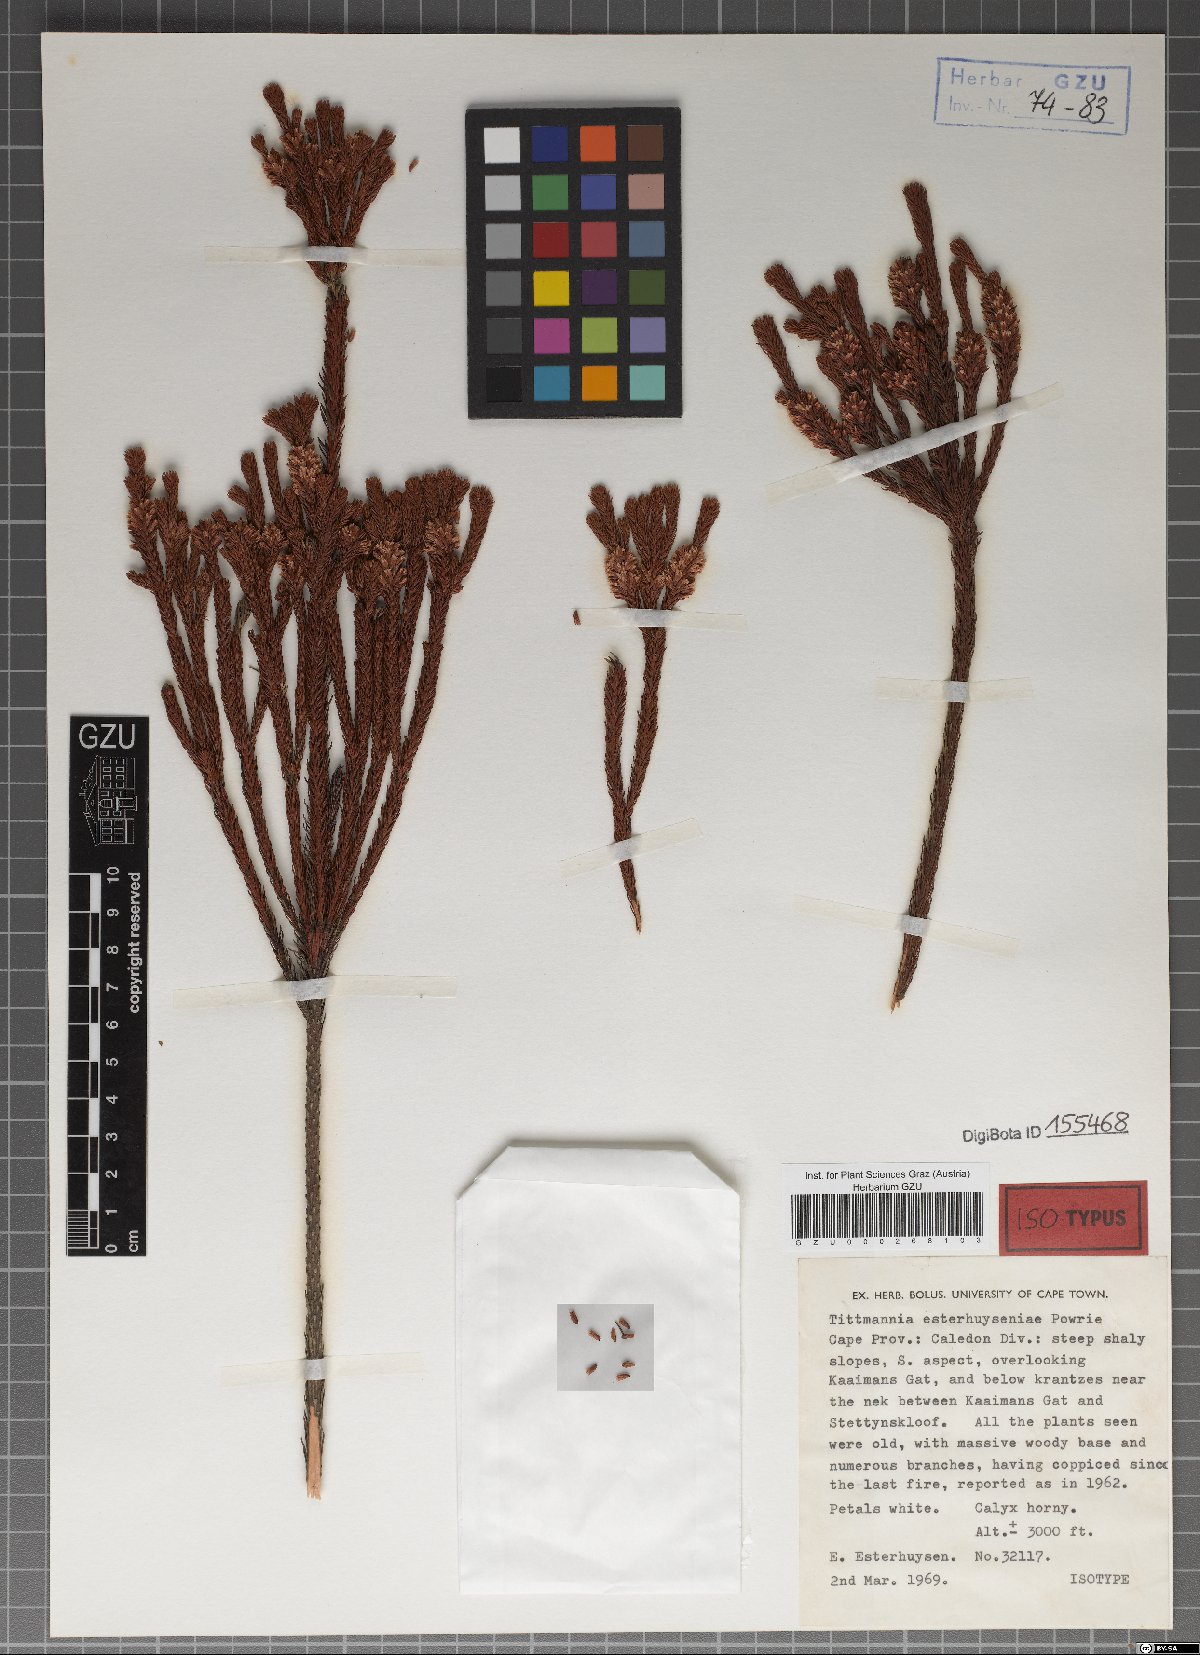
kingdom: Plantae
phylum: Tracheophyta
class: Magnoliopsida
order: Bruniales
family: Bruniaceae
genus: Audouinia
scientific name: Audouinia esterhuyseniae
